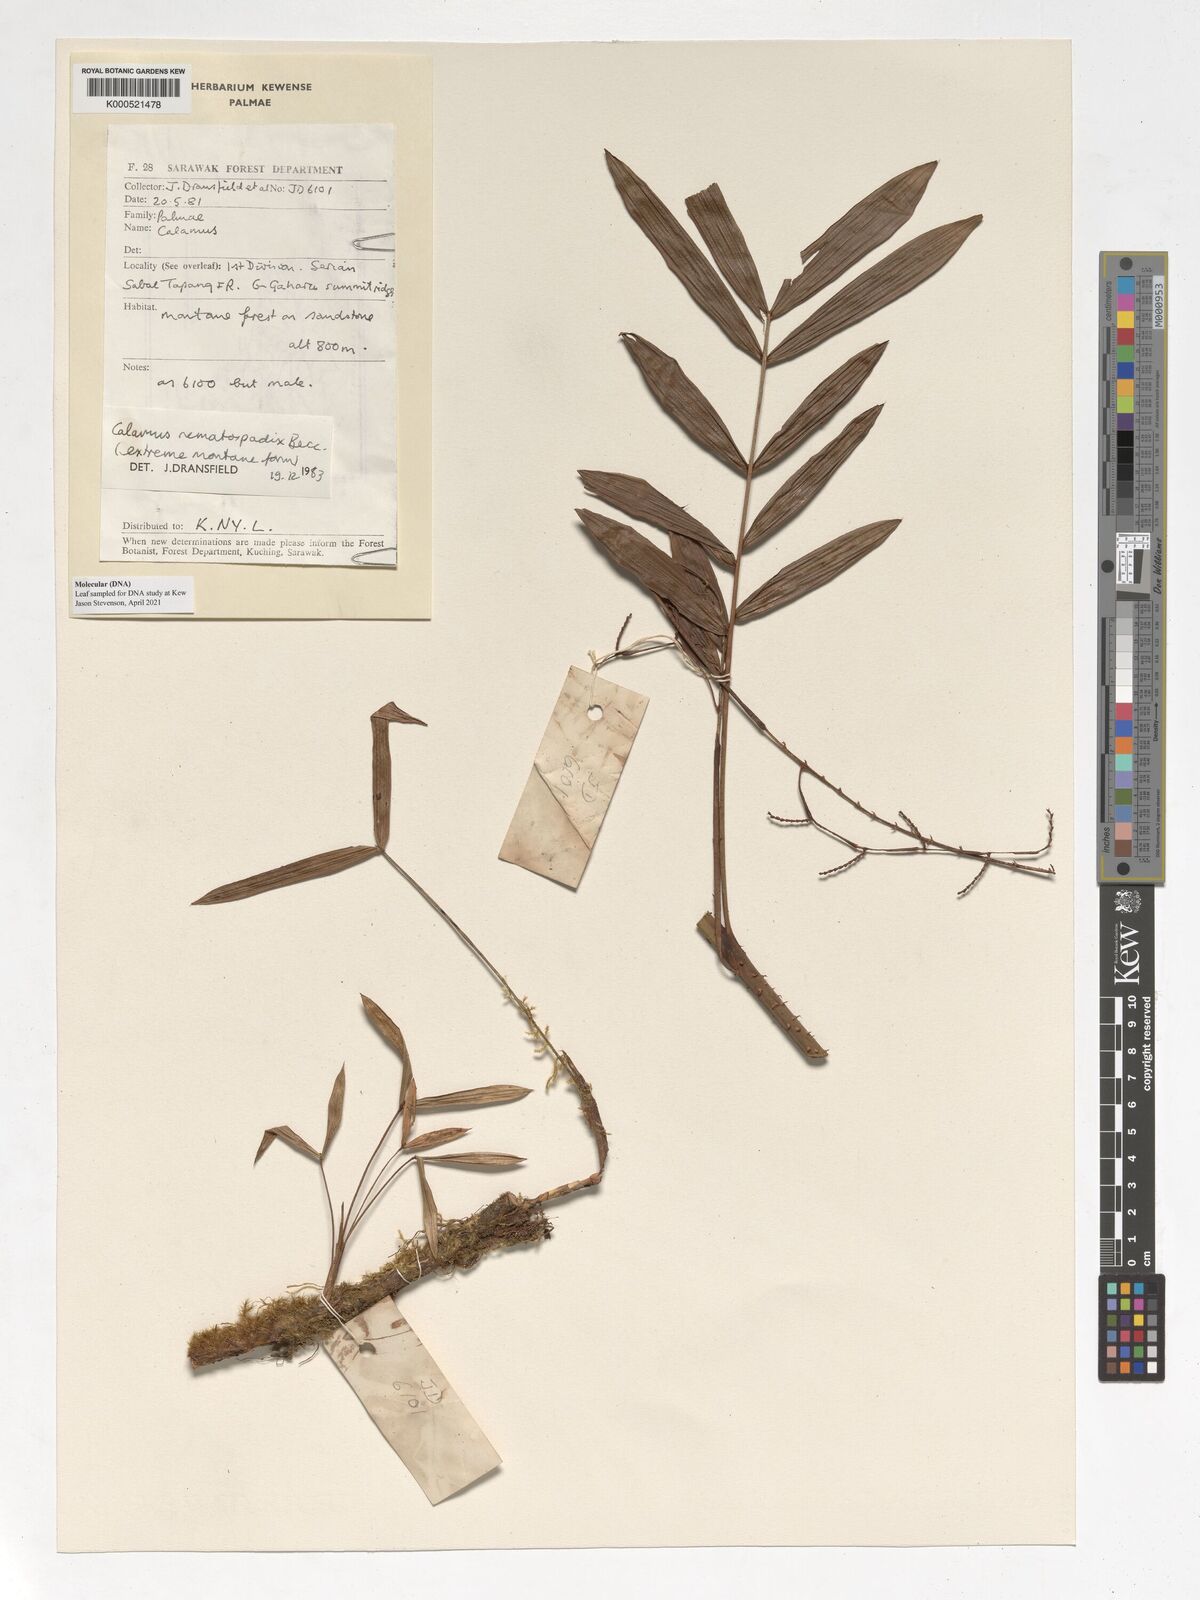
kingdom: Plantae
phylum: Tracheophyta
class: Liliopsida
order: Arecales
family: Arecaceae
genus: Calamus
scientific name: Calamus nematospadix
